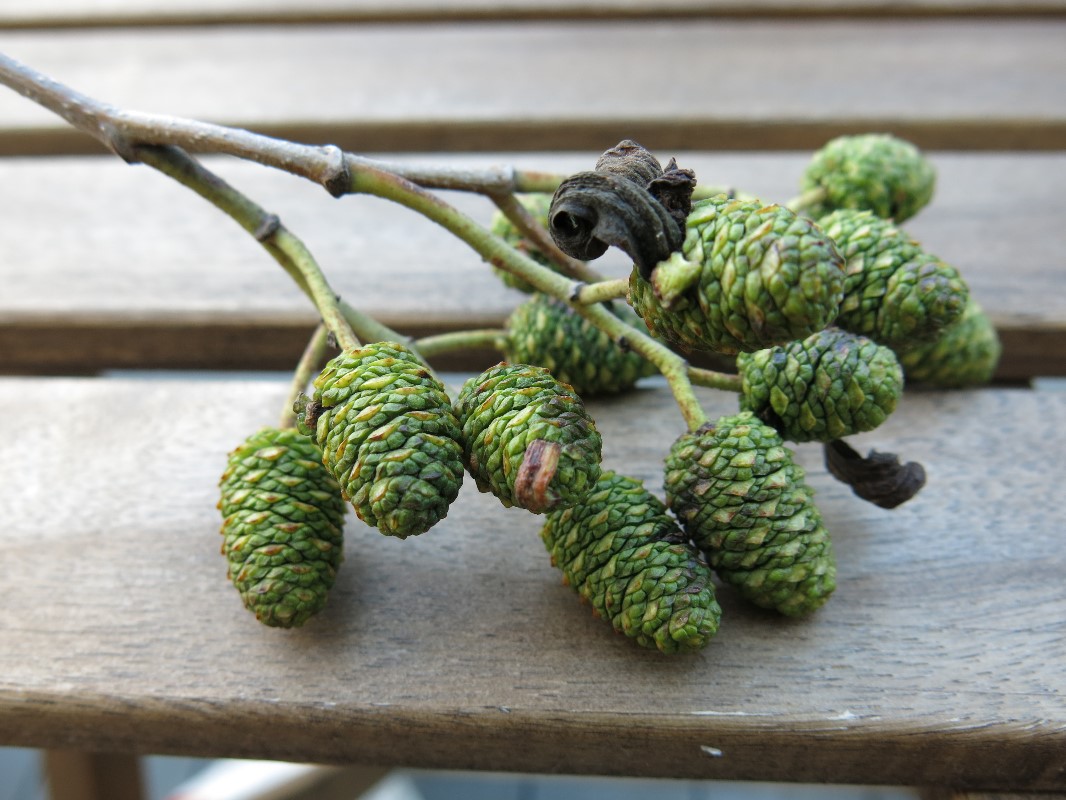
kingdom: Fungi
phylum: Ascomycota
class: Taphrinomycetes
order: Taphrinales
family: Taphrinaceae
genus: Taphrina
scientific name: Taphrina alni
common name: Alder tongue
